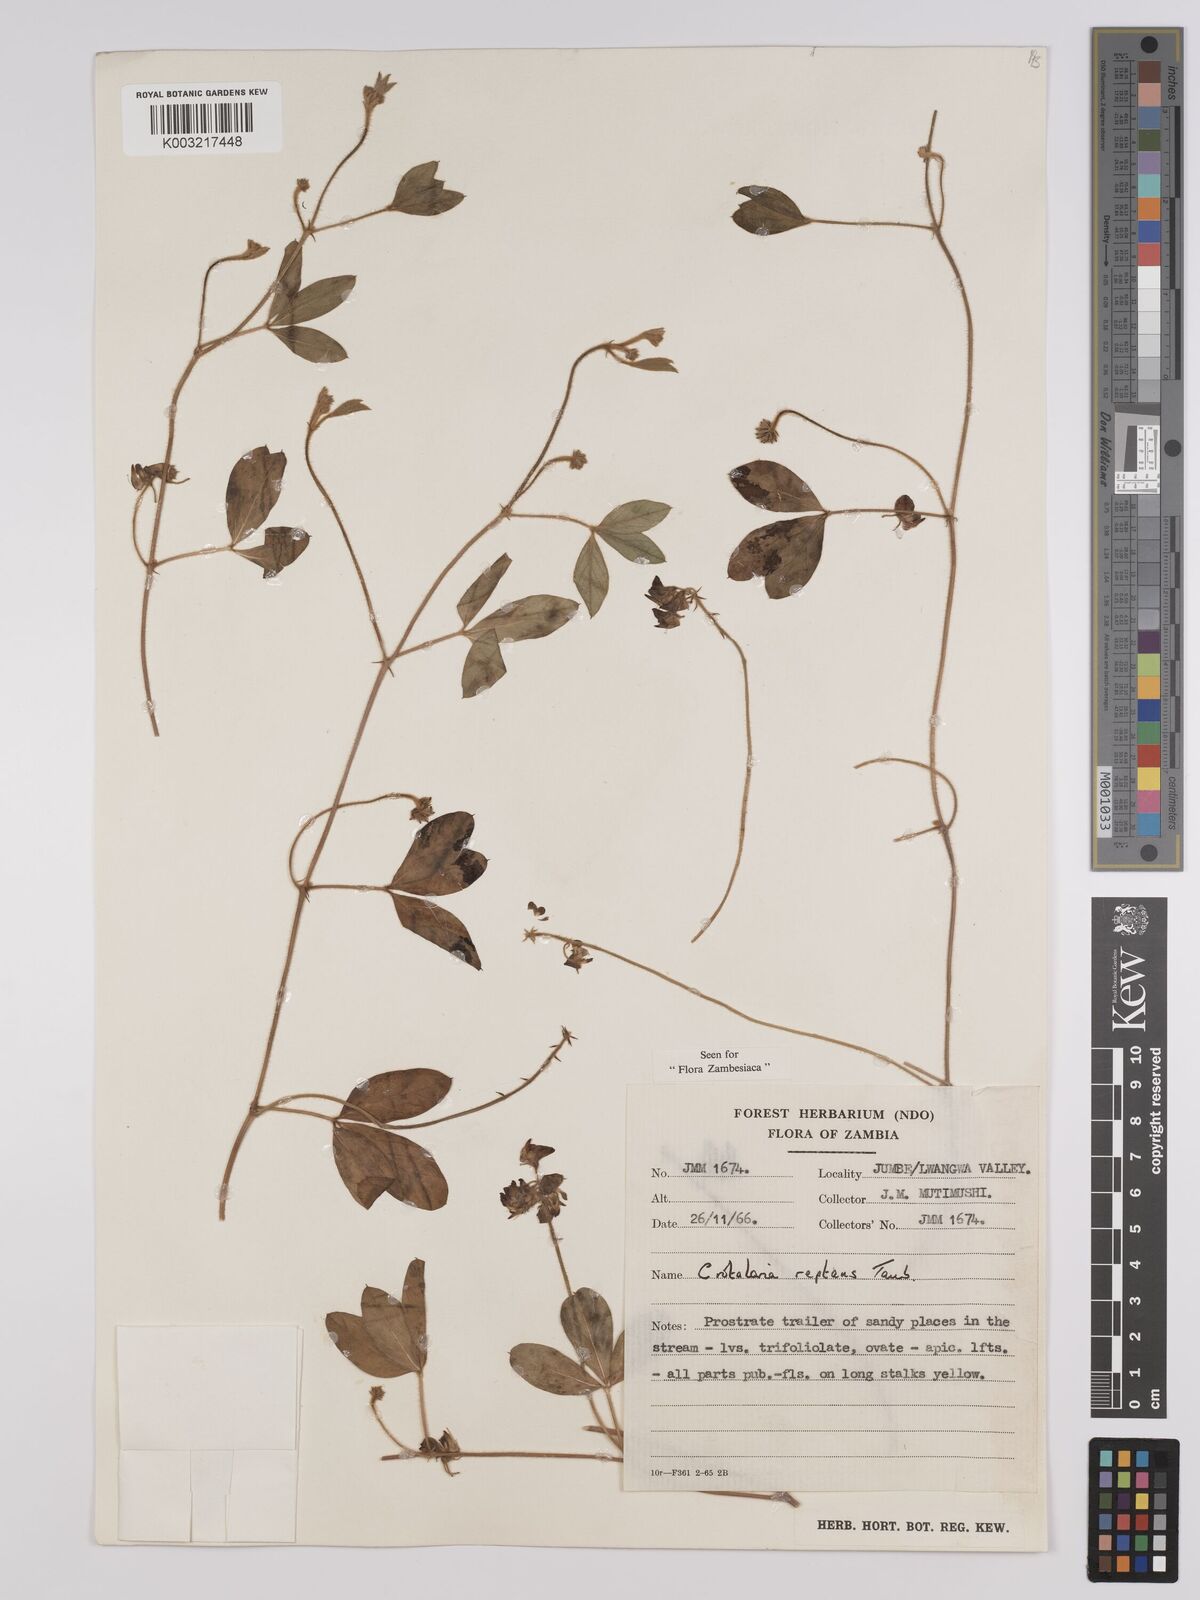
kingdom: Plantae
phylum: Tracheophyta
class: Magnoliopsida
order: Fabales
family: Fabaceae
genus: Crotalaria
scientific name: Crotalaria reptans
